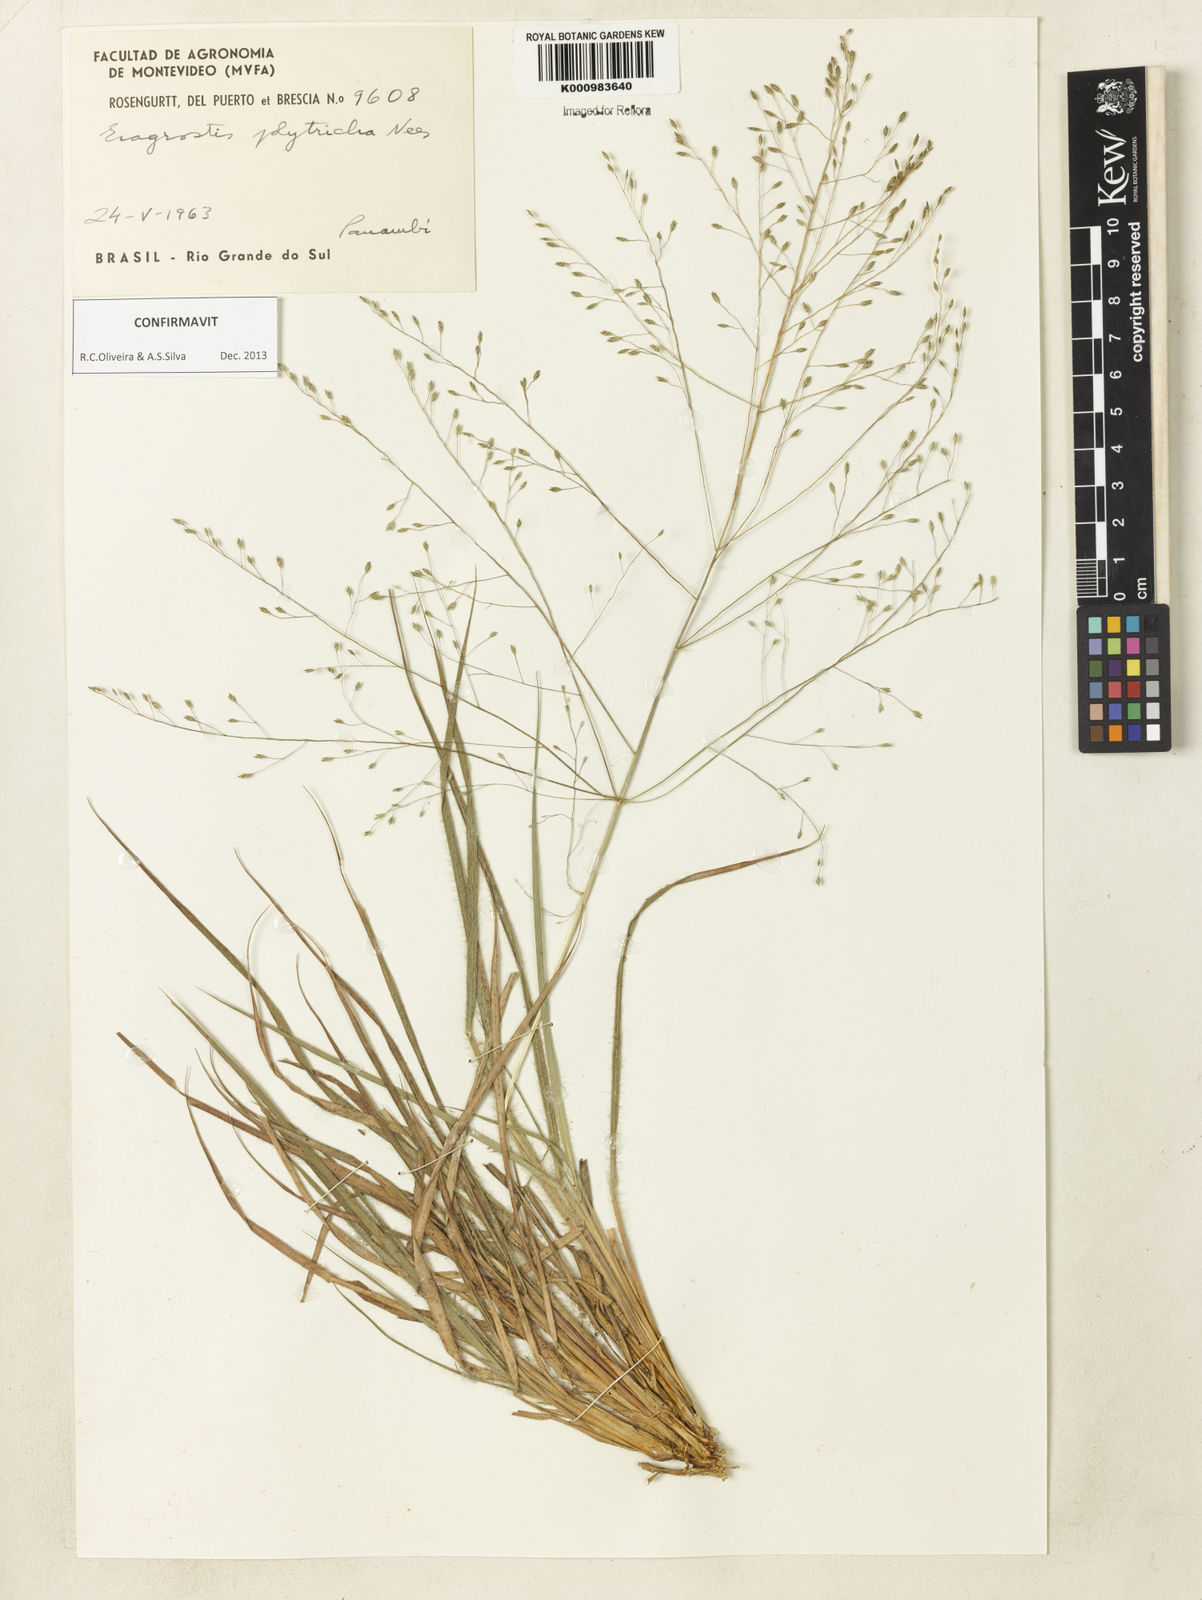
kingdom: Plantae
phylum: Tracheophyta
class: Liliopsida
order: Poales
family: Poaceae
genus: Eragrostis
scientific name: Eragrostis polytricha
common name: Hairy-sheath love grass
